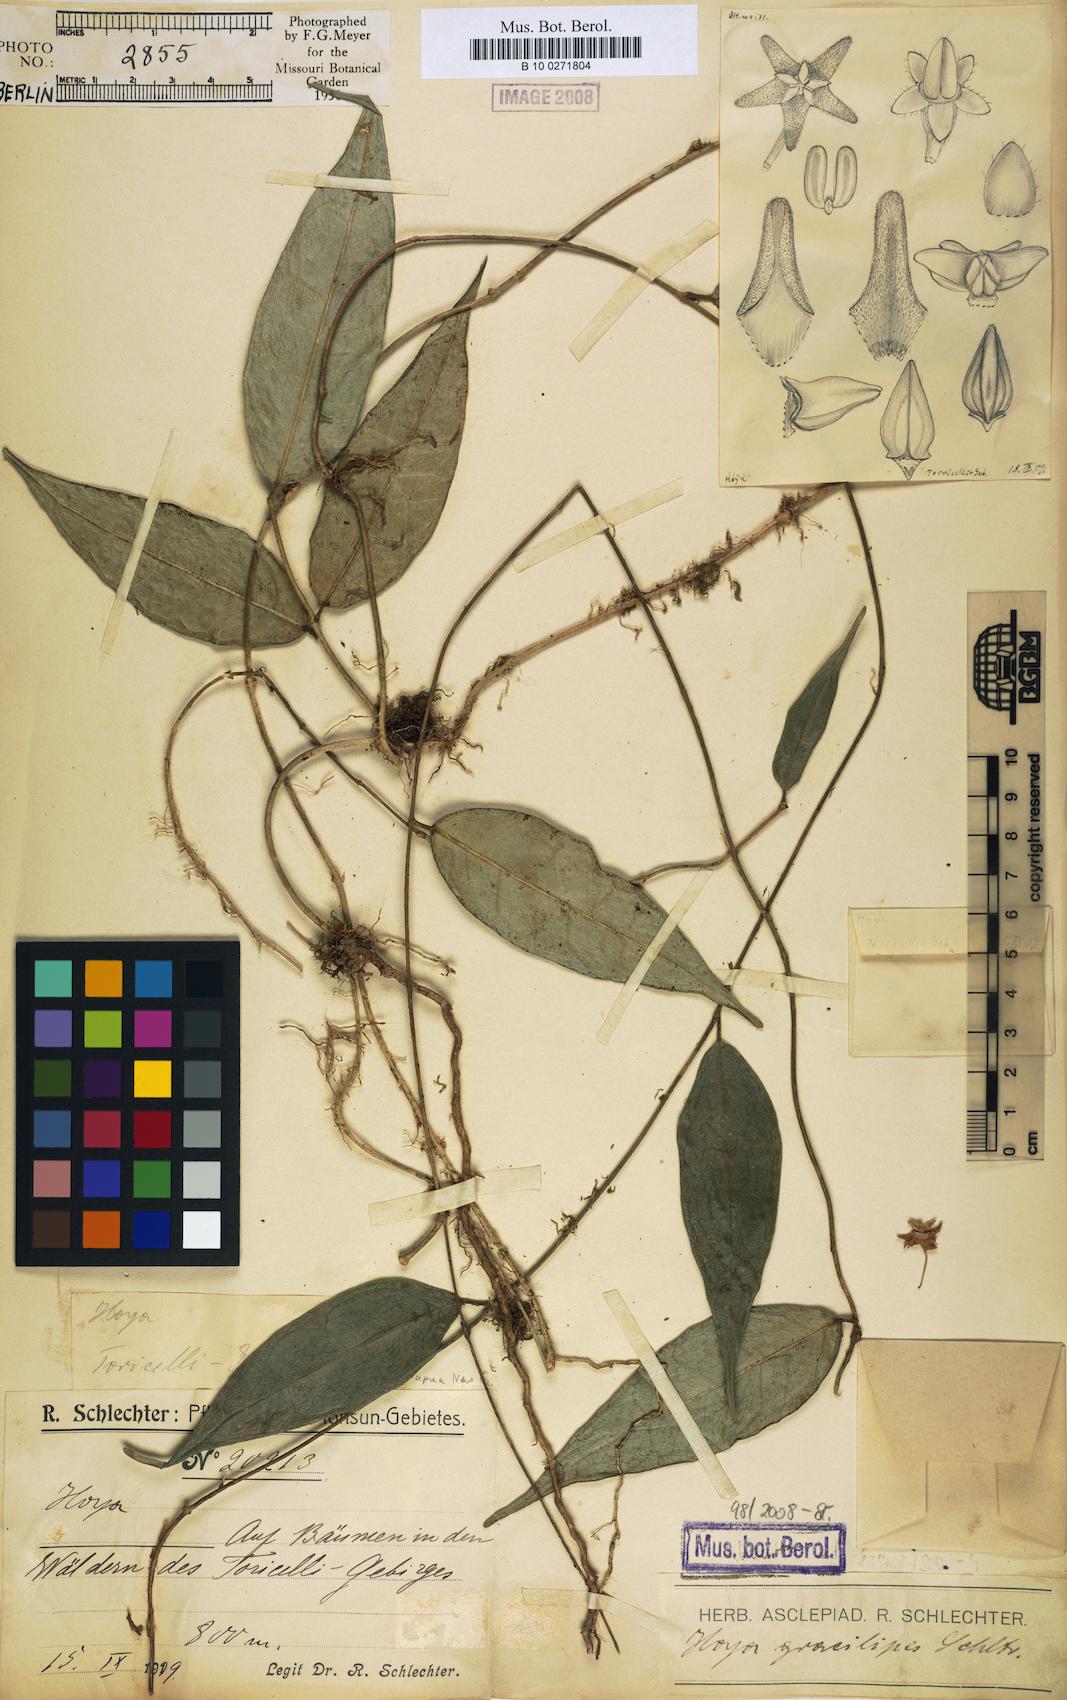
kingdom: Plantae
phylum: Tracheophyta
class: Magnoliopsida
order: Gentianales
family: Apocynaceae
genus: Hoya
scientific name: Hoya gracilipes
